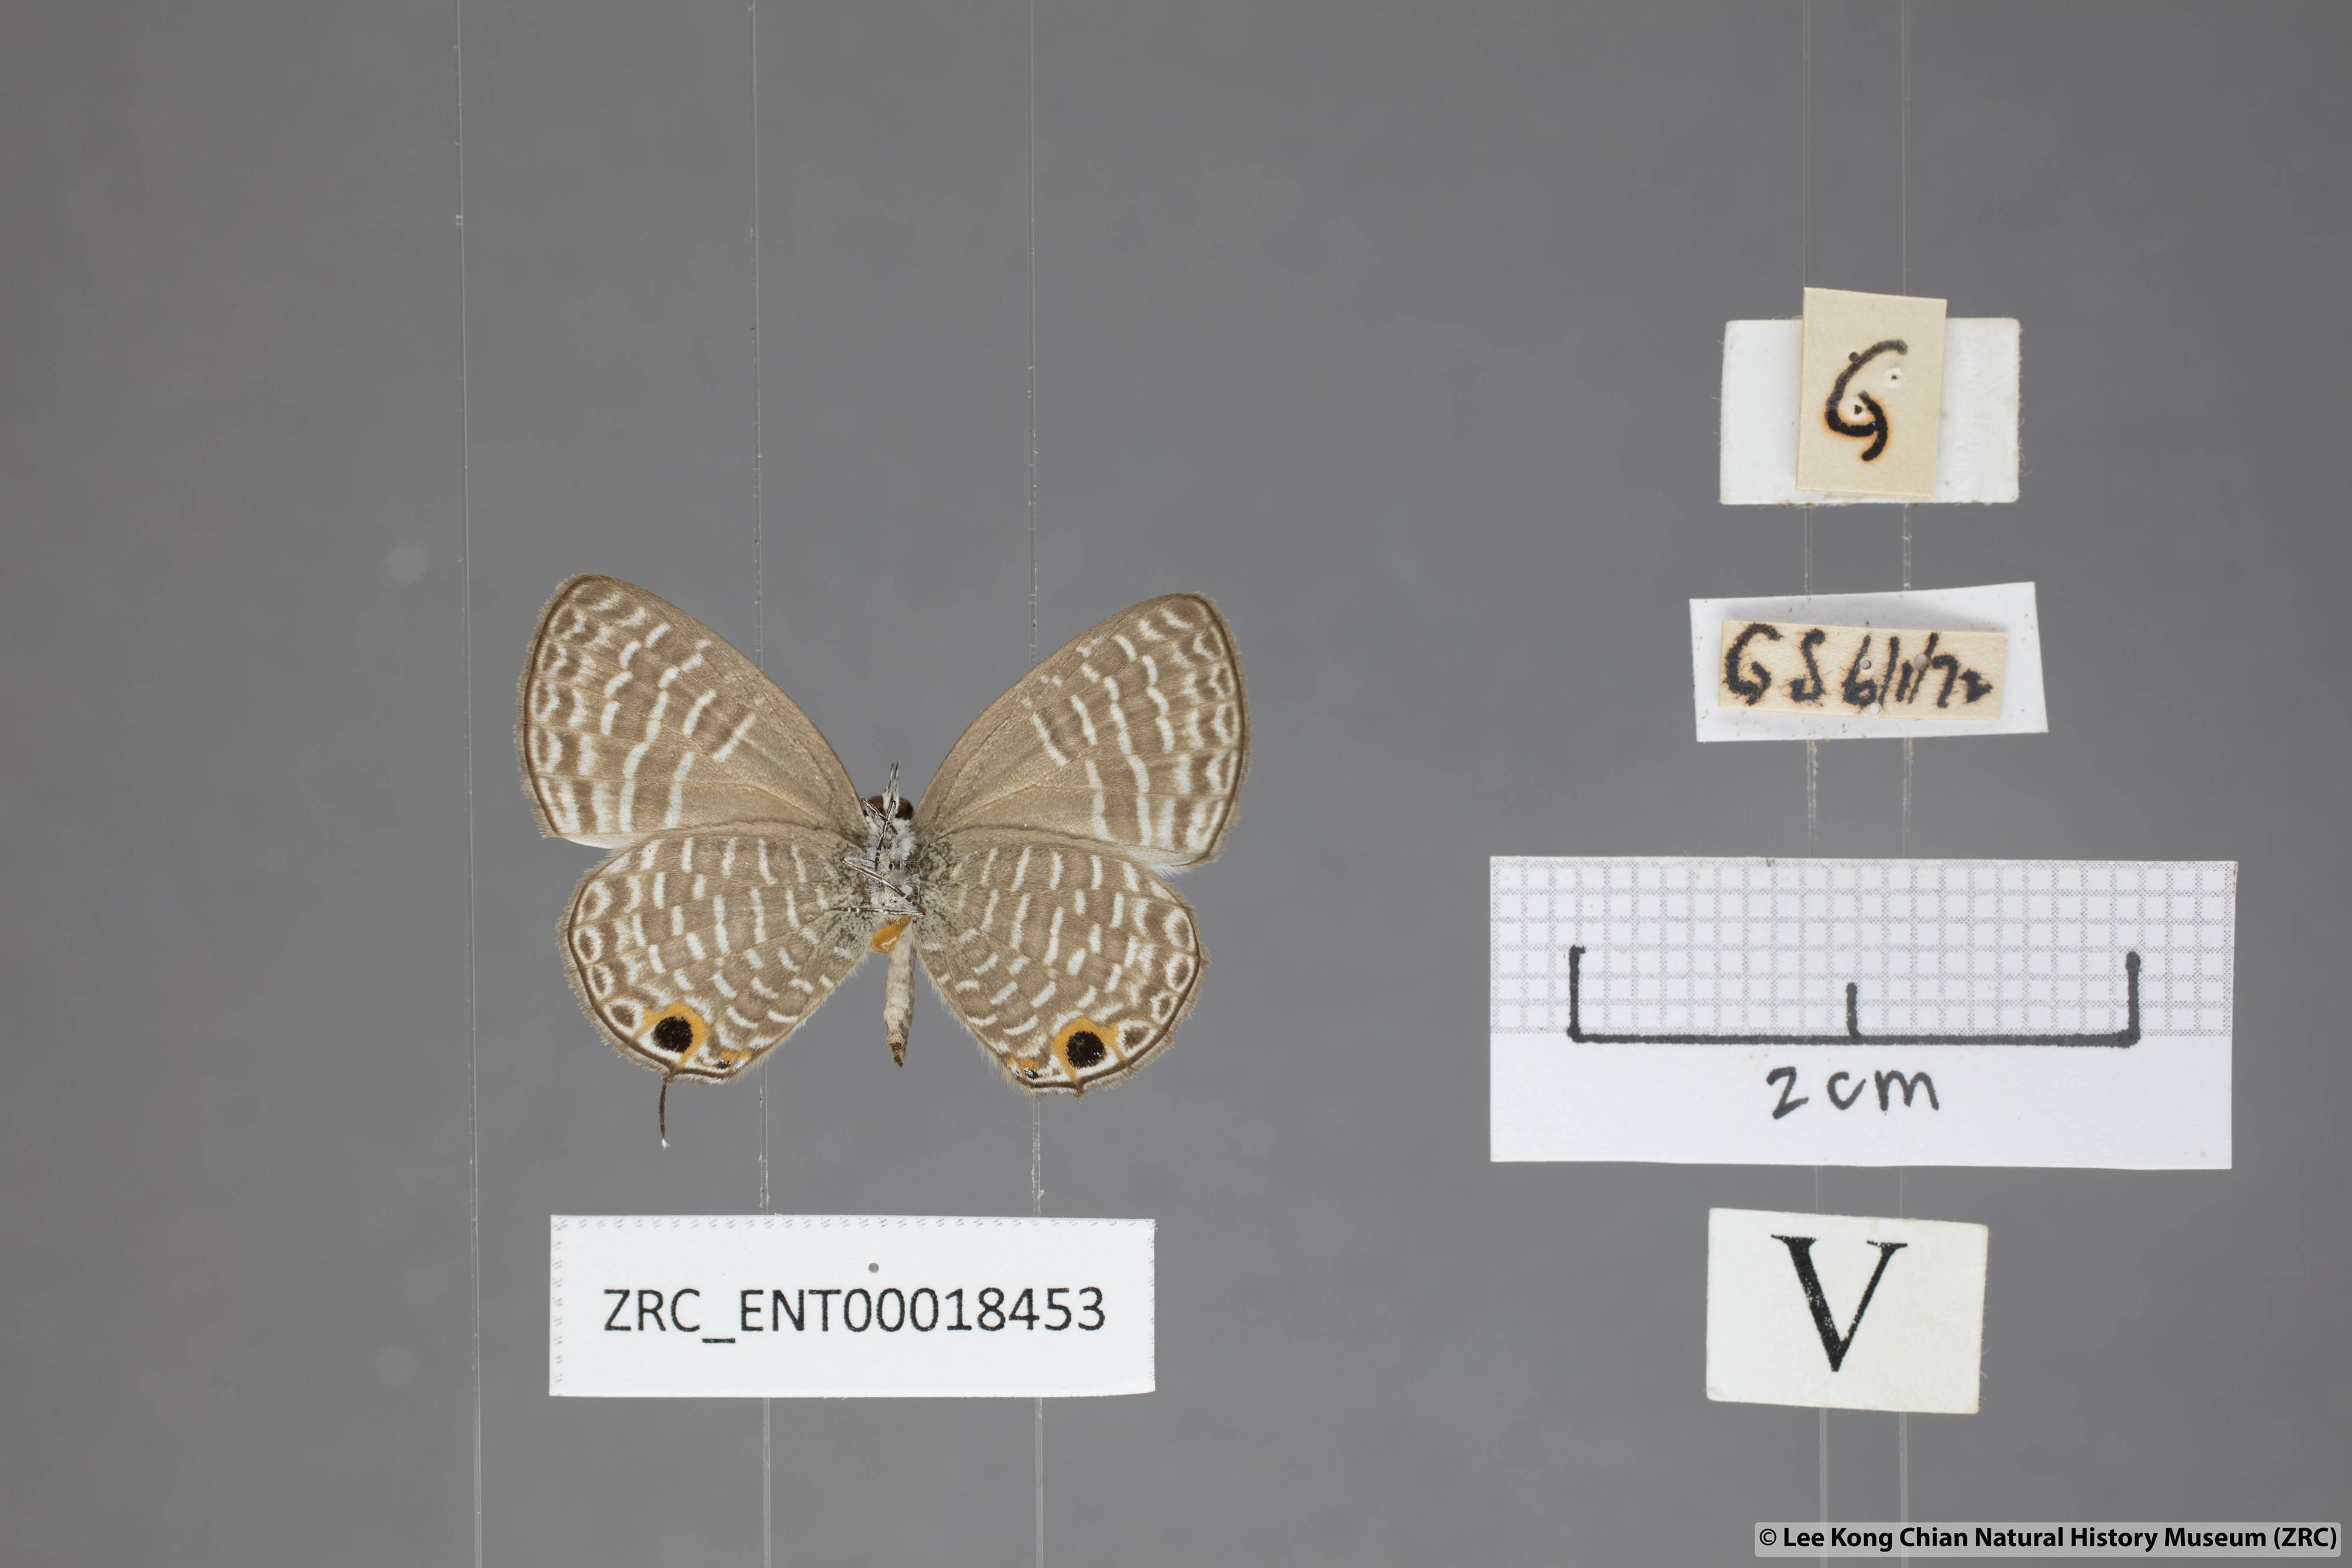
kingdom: Animalia
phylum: Arthropoda
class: Insecta
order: Lepidoptera
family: Lycaenidae
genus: Nacaduba
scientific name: Nacaduba sanaya
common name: Jewel fourline blue
